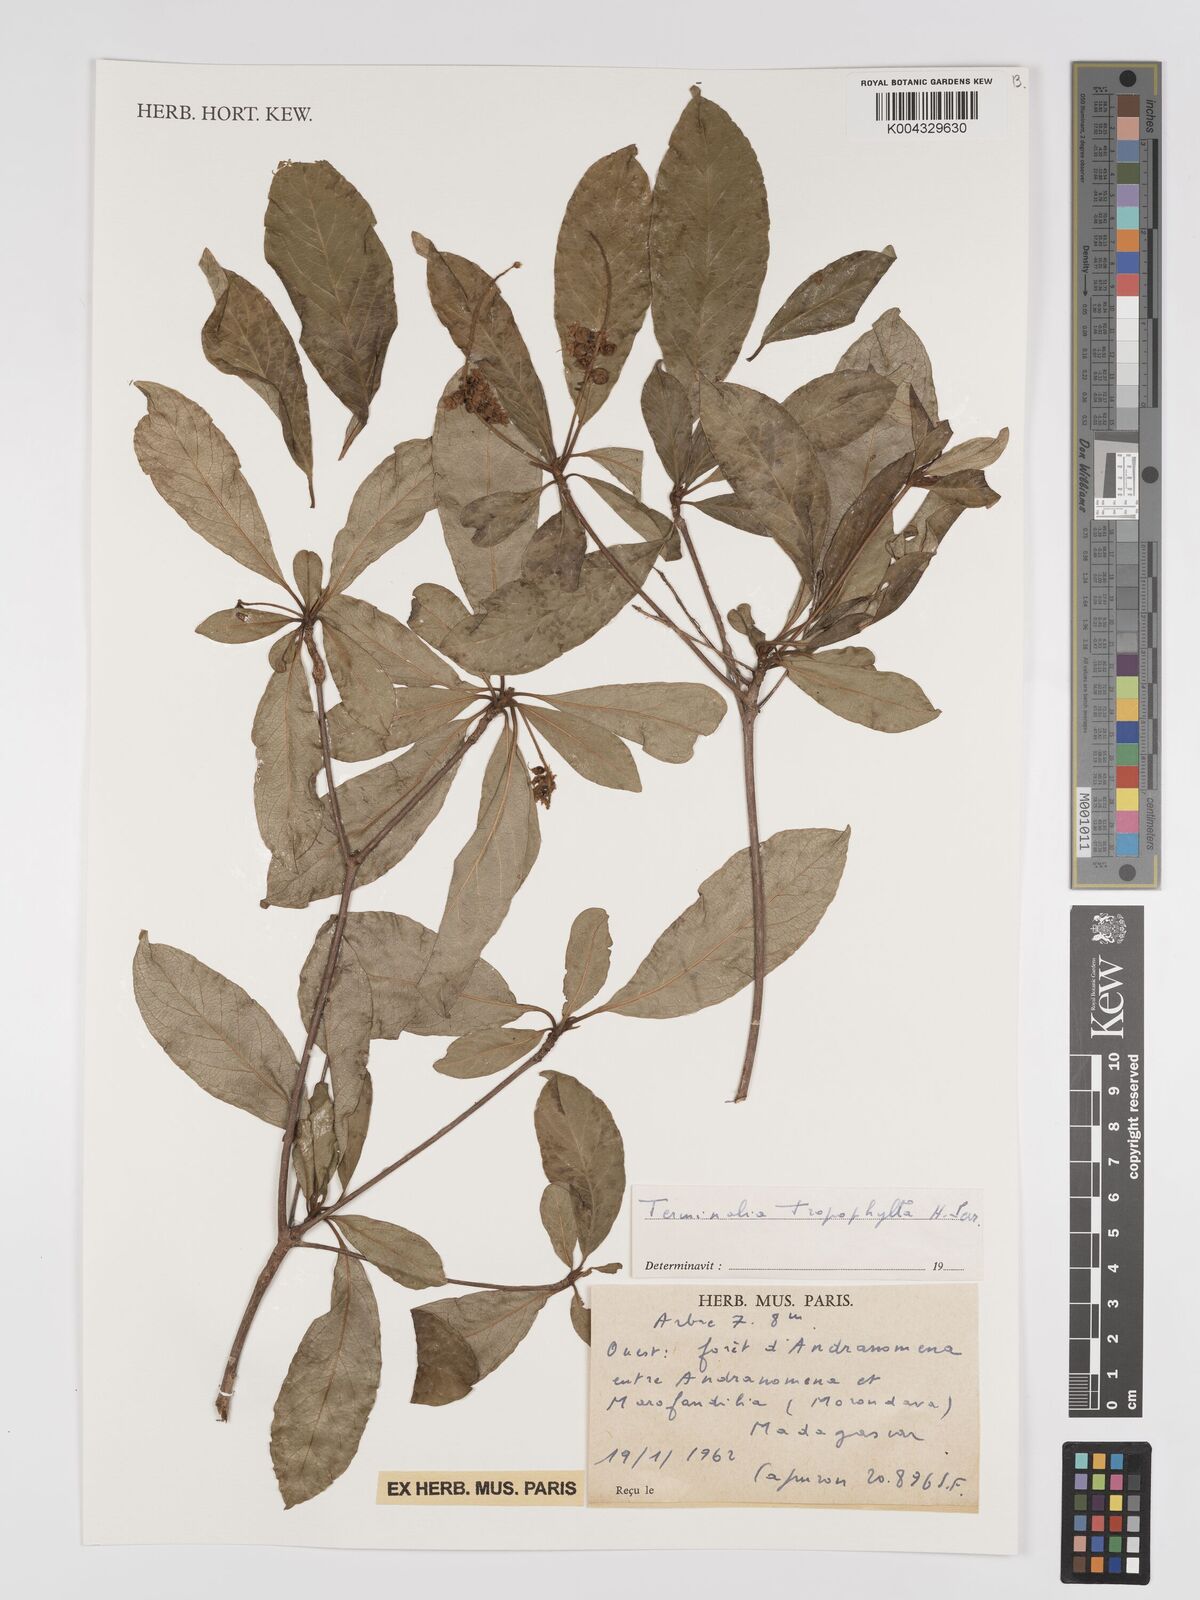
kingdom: Plantae
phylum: Tracheophyta
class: Magnoliopsida
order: Myrtales
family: Combretaceae
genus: Terminalia
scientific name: Terminalia tropophylla
